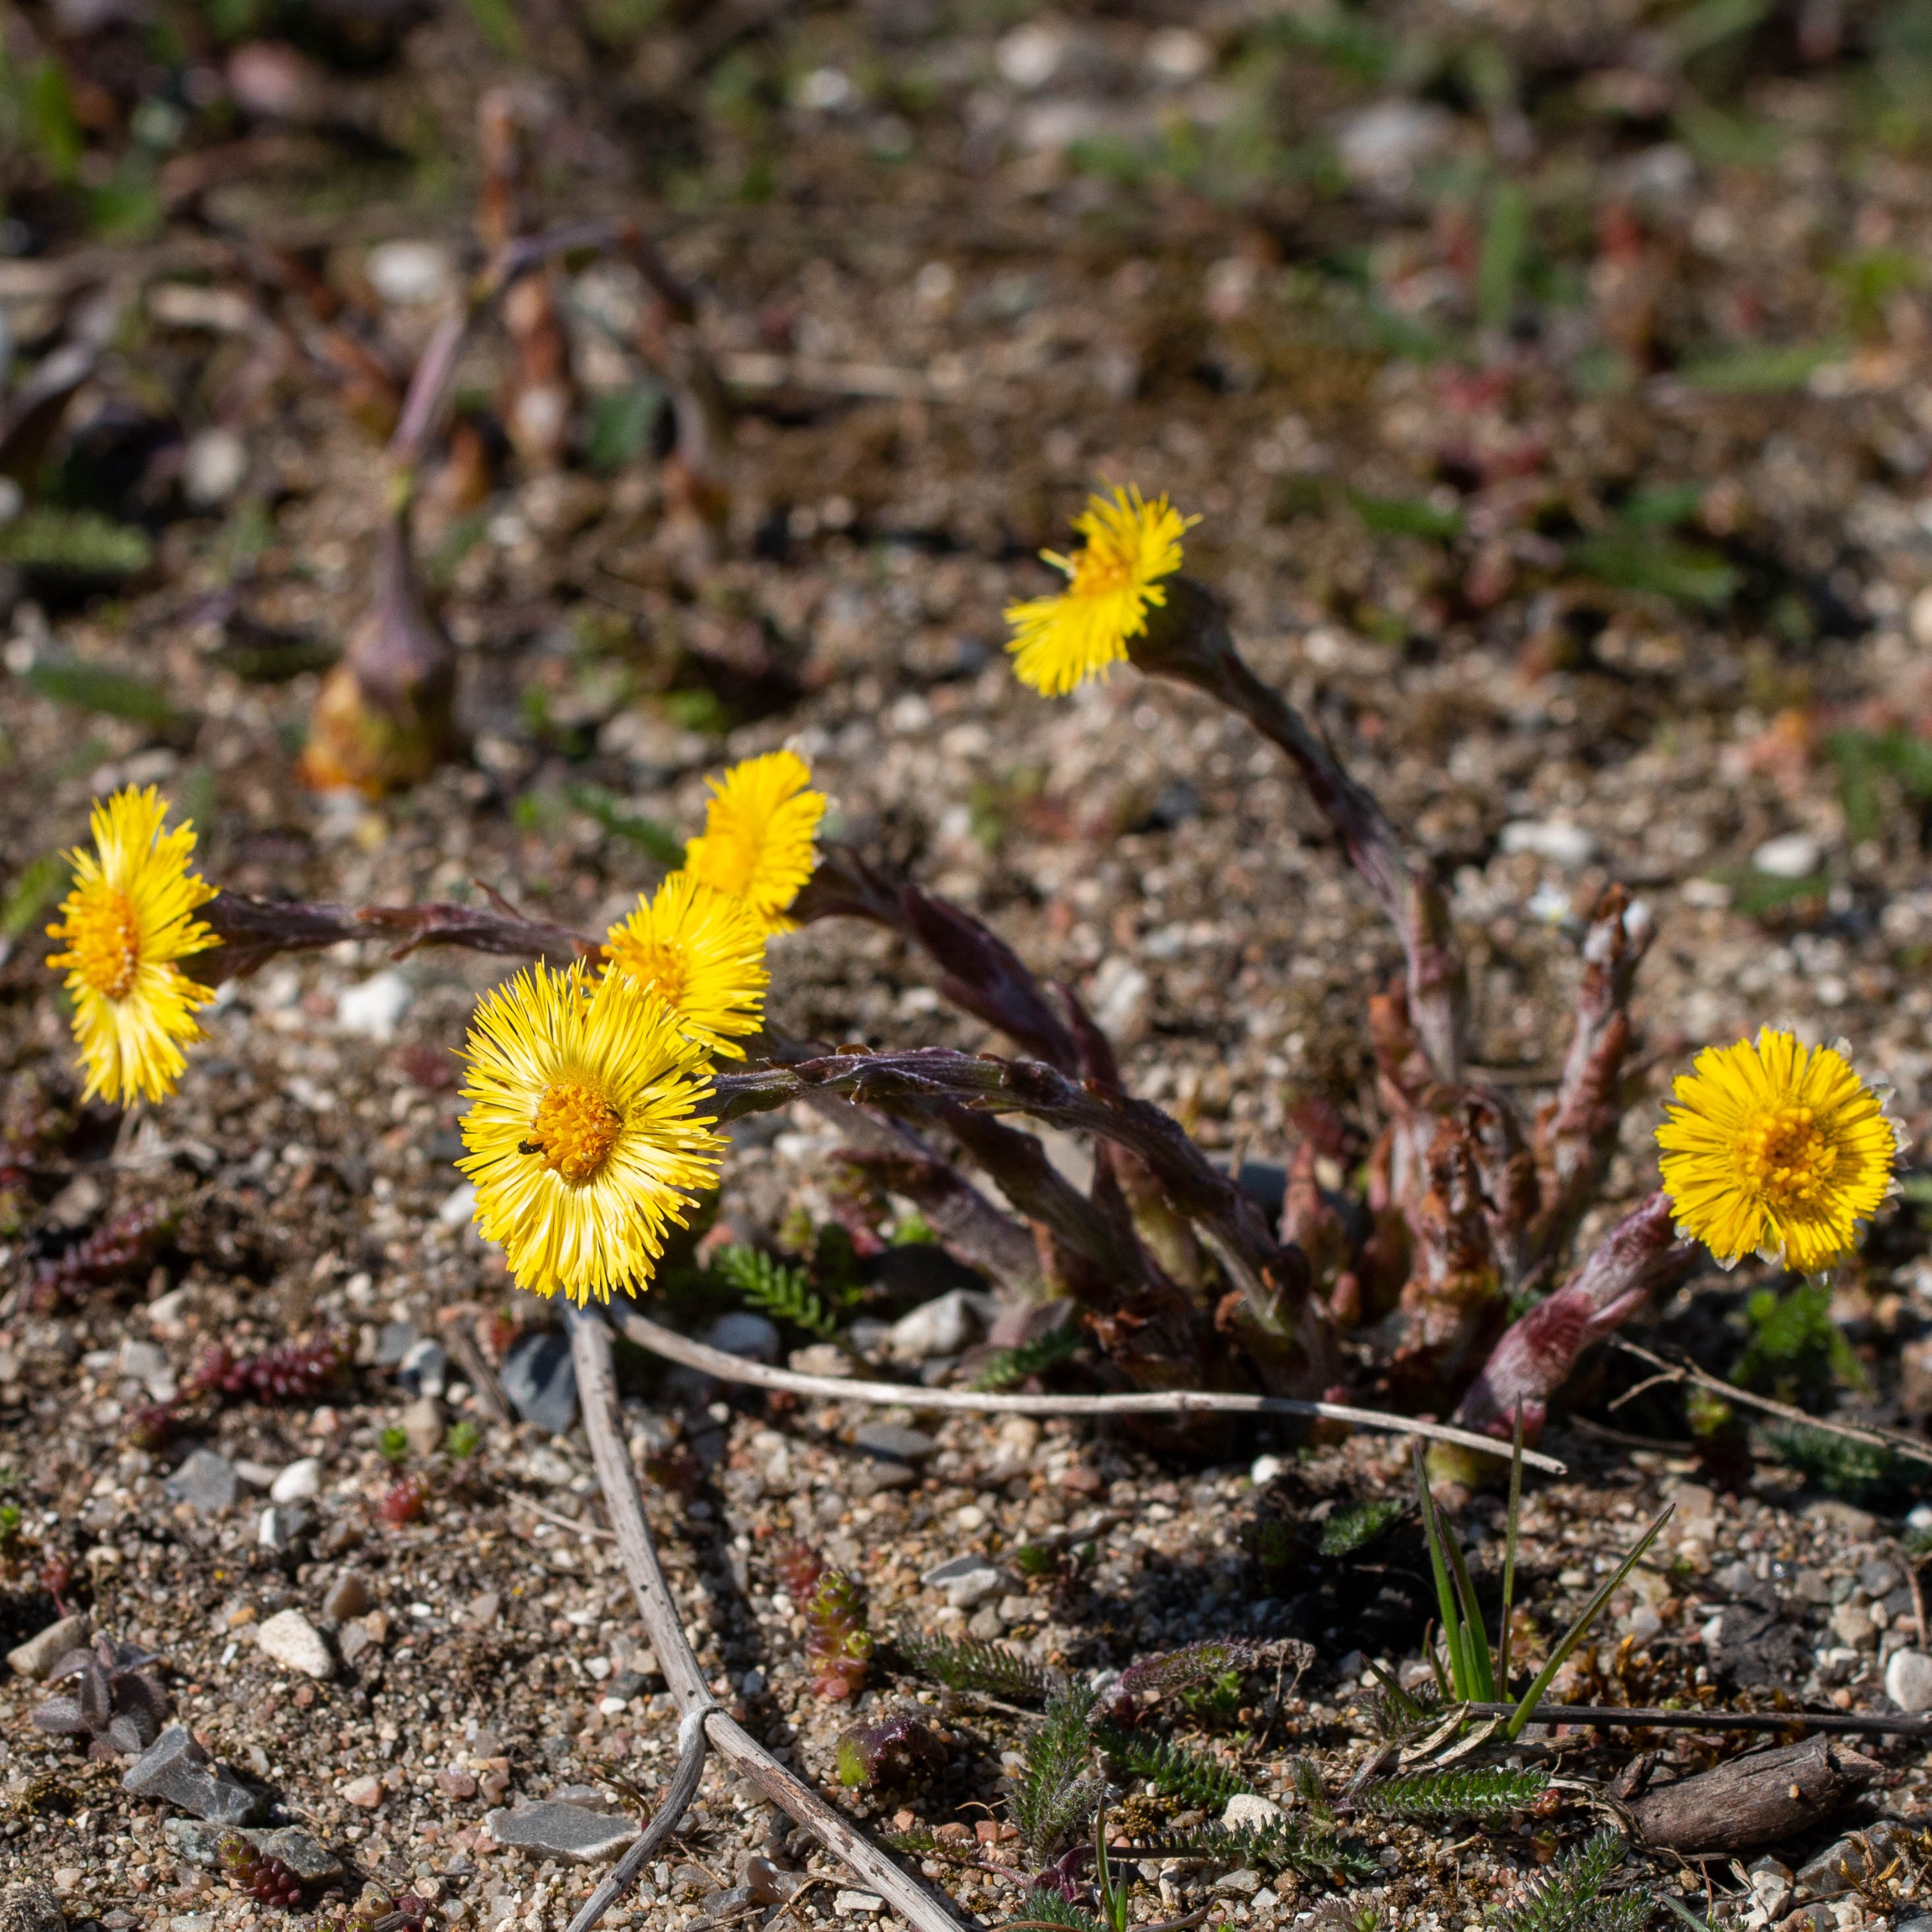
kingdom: Plantae
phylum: Tracheophyta
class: Magnoliopsida
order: Asterales
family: Asteraceae
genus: Tussilago
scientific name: Tussilago farfara
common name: Følfod
